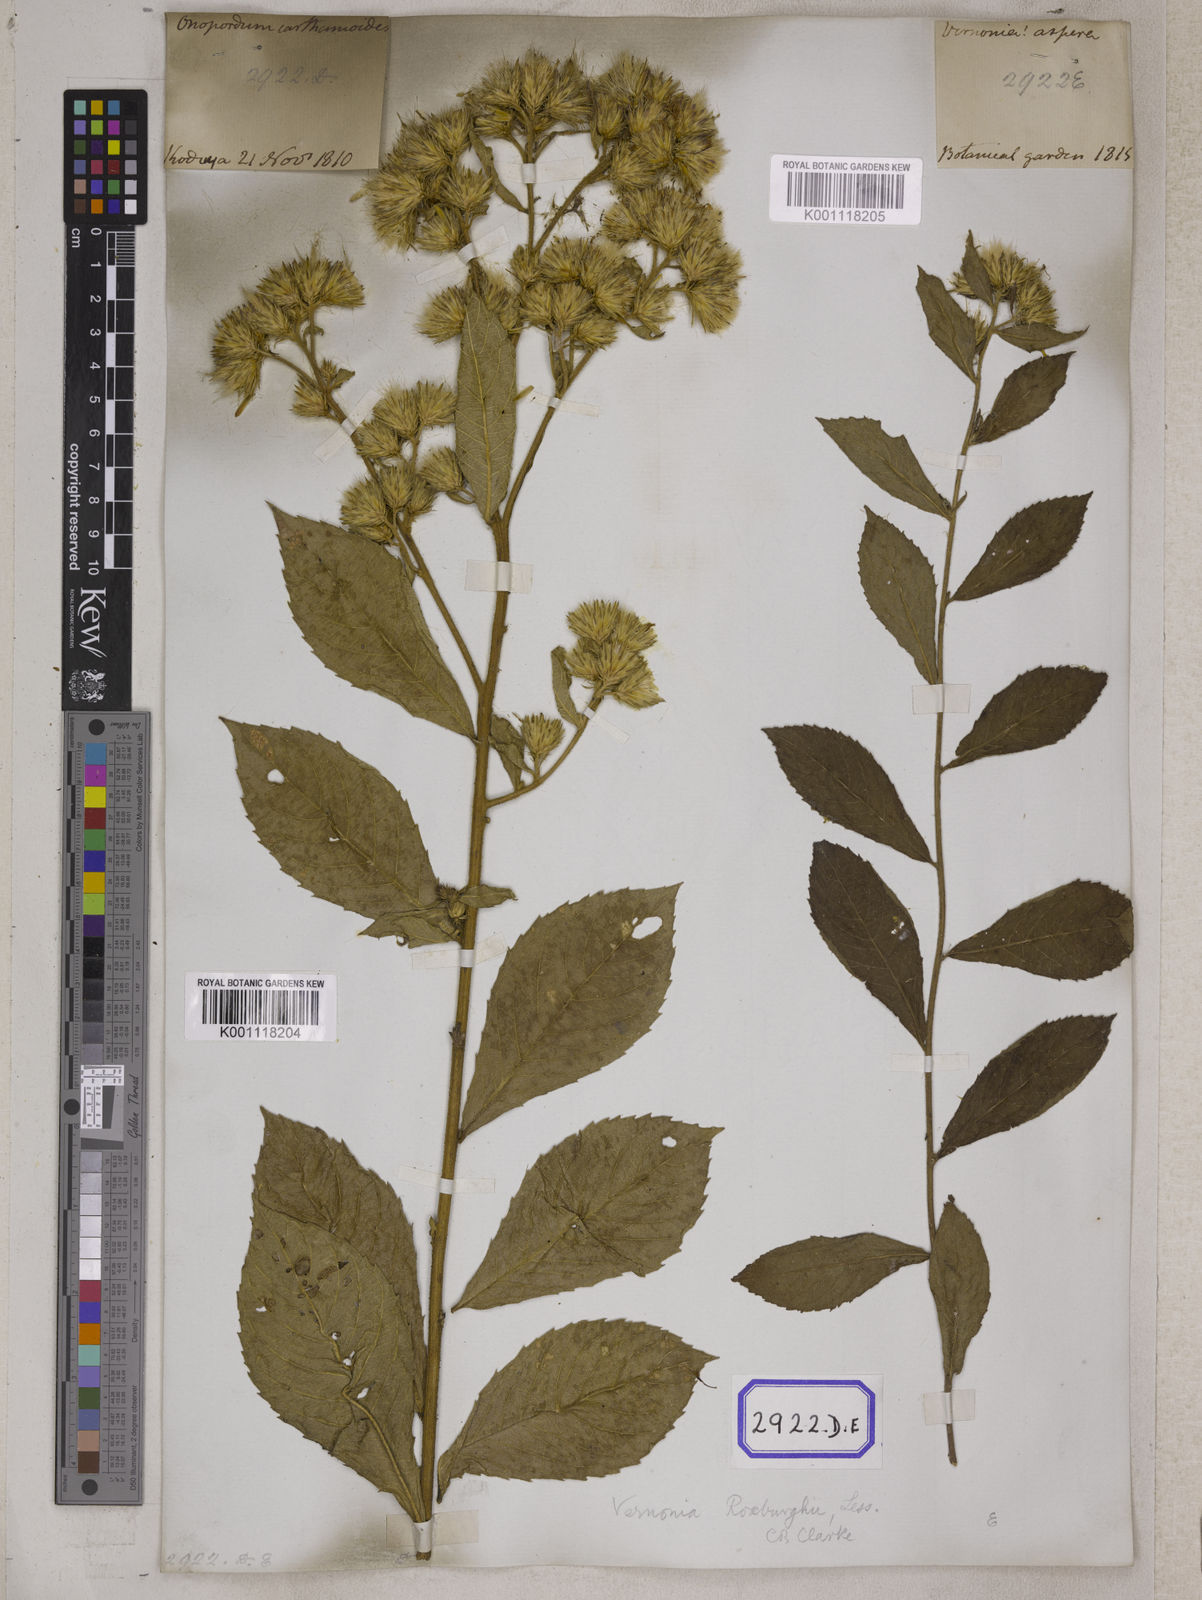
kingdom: Plantae
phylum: Tracheophyta
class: Magnoliopsida
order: Asterales
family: Asteraceae
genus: Vernonia
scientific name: Vernonia
